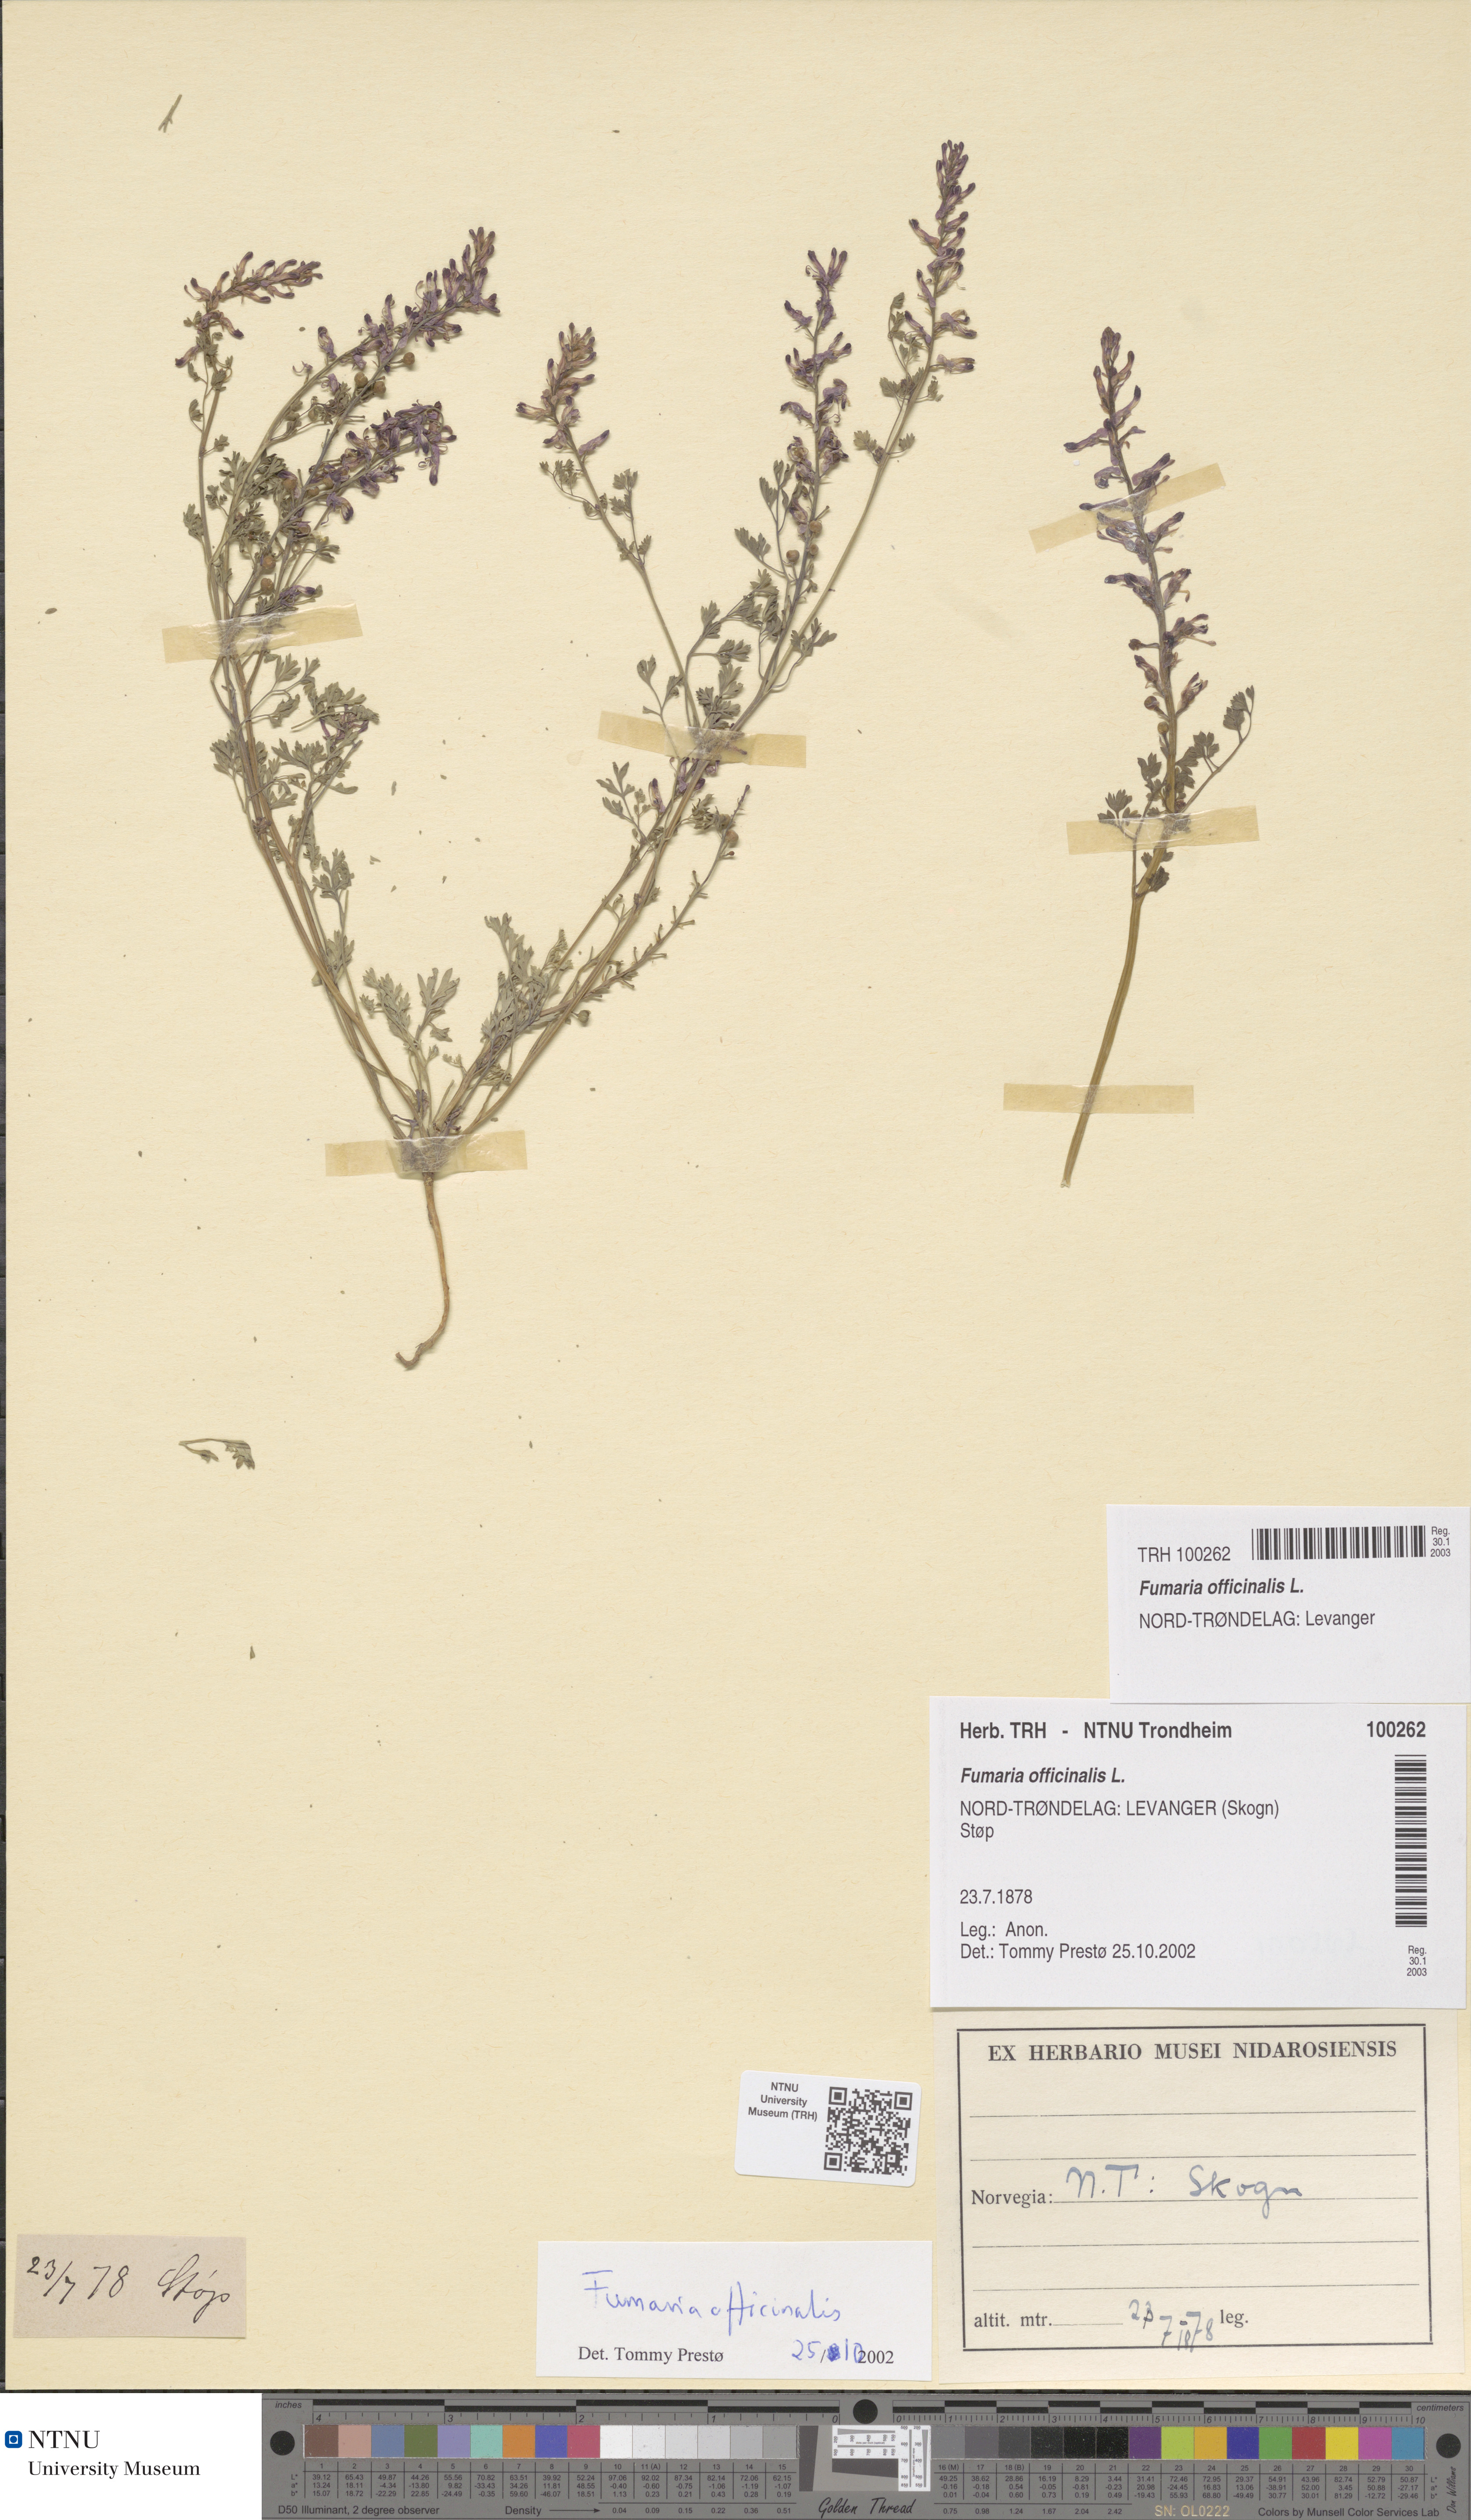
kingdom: Plantae
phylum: Tracheophyta
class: Magnoliopsida
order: Ranunculales
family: Papaveraceae
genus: Fumaria
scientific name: Fumaria officinalis
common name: Common fumitory
